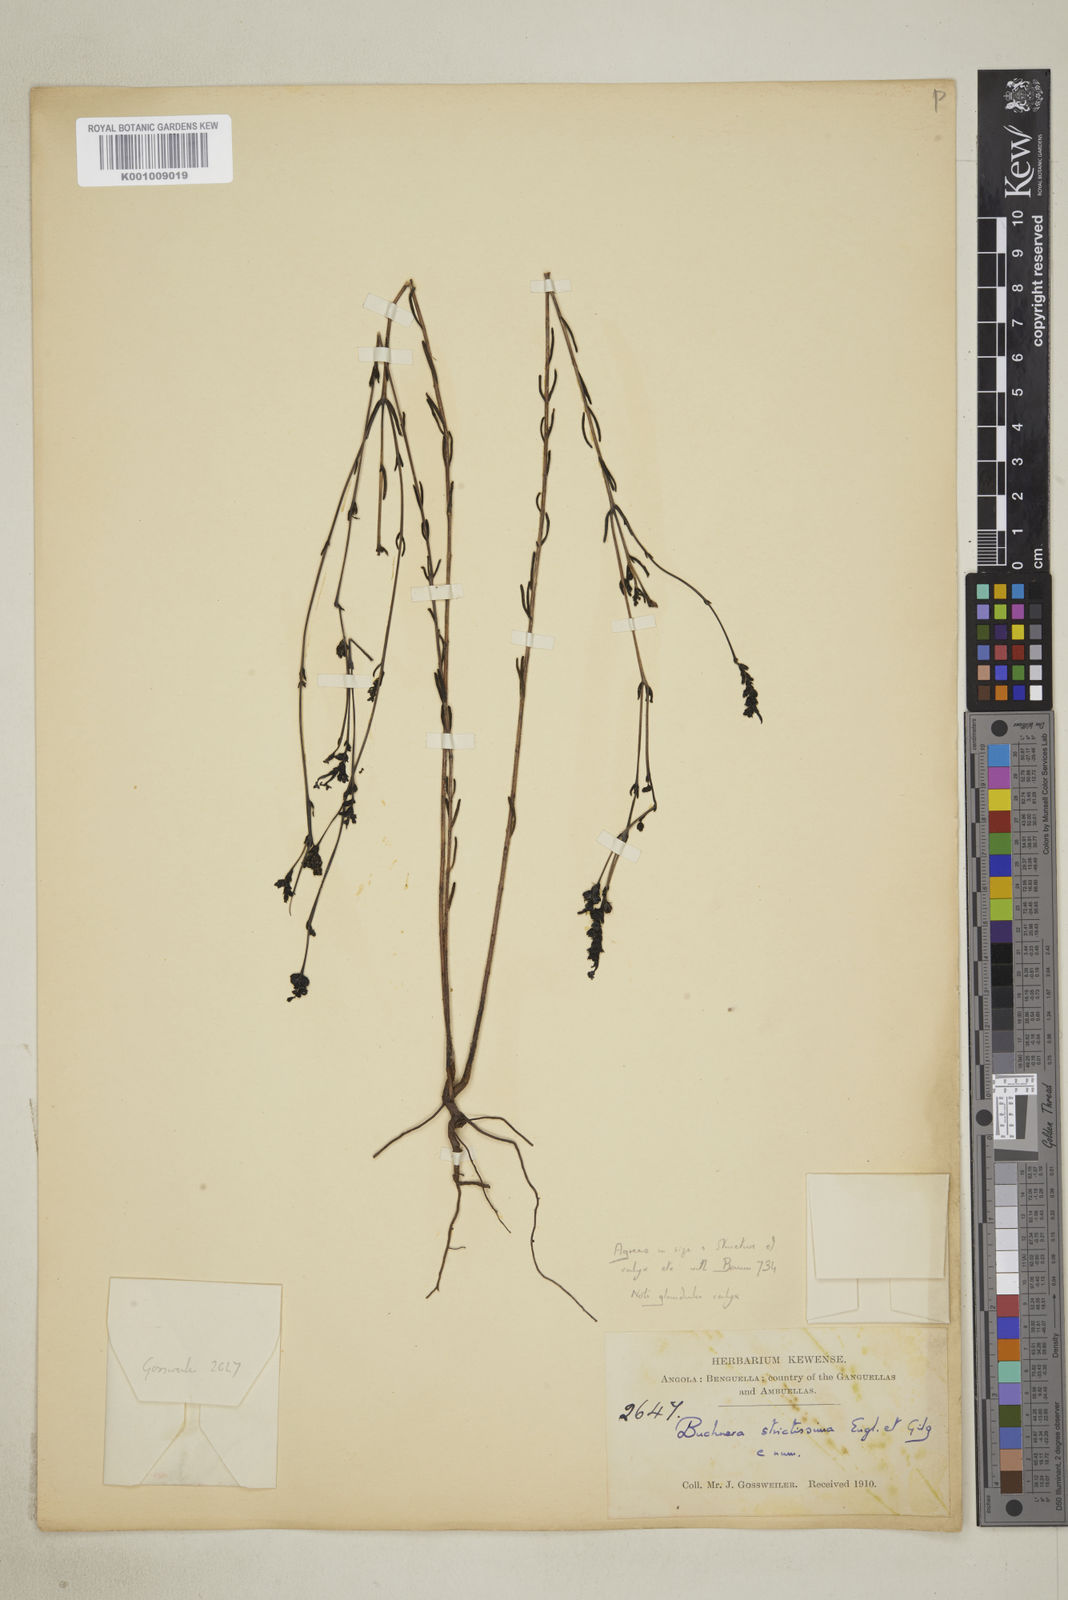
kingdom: Plantae
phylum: Tracheophyta
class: Magnoliopsida
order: Lamiales
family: Orobanchaceae
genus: Buchnera
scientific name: Buchnera strictissima
